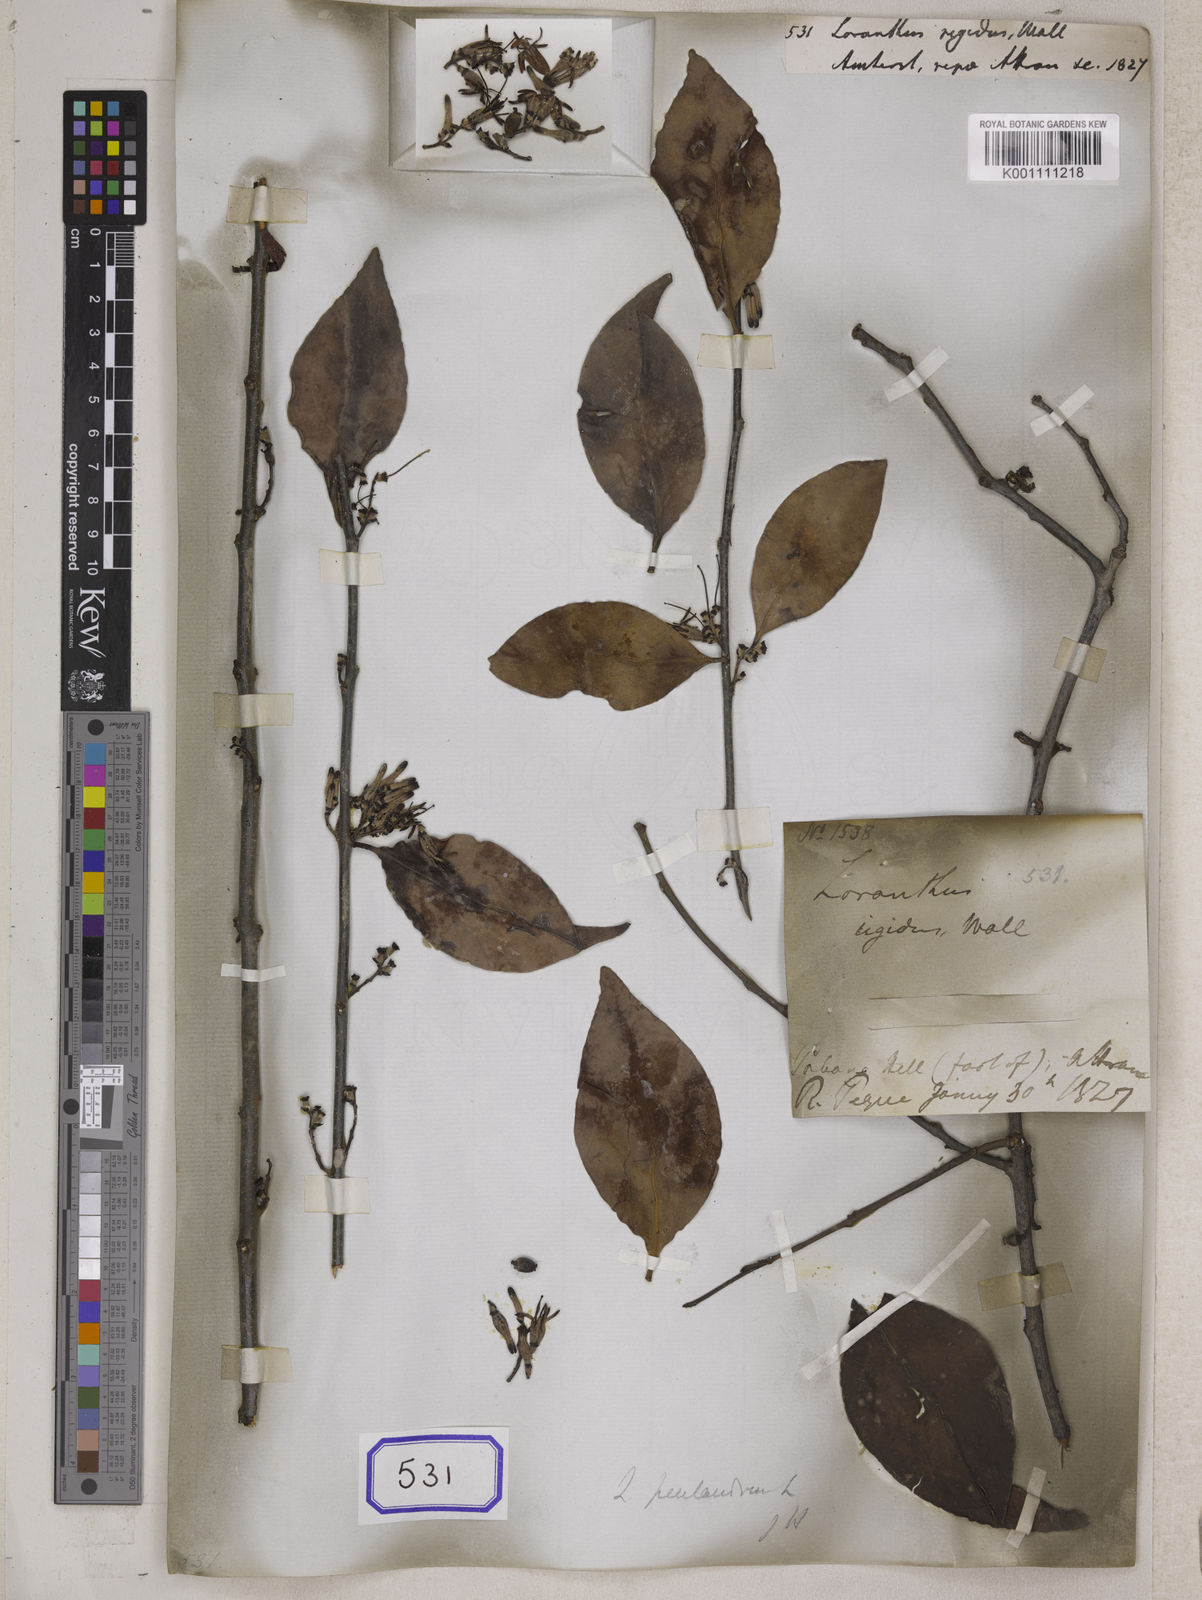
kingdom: Plantae
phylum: Tracheophyta
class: Magnoliopsida
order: Santalales
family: Loranthaceae
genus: Loranthus
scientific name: Loranthus
